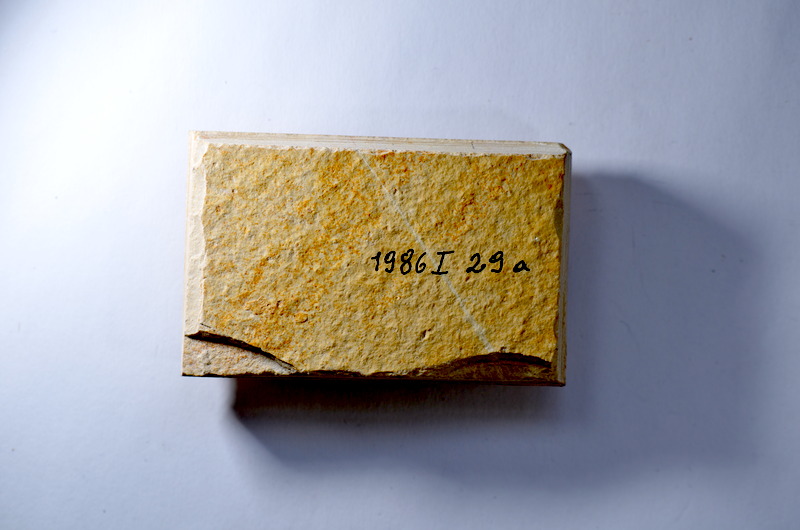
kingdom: Animalia
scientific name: Animalia
